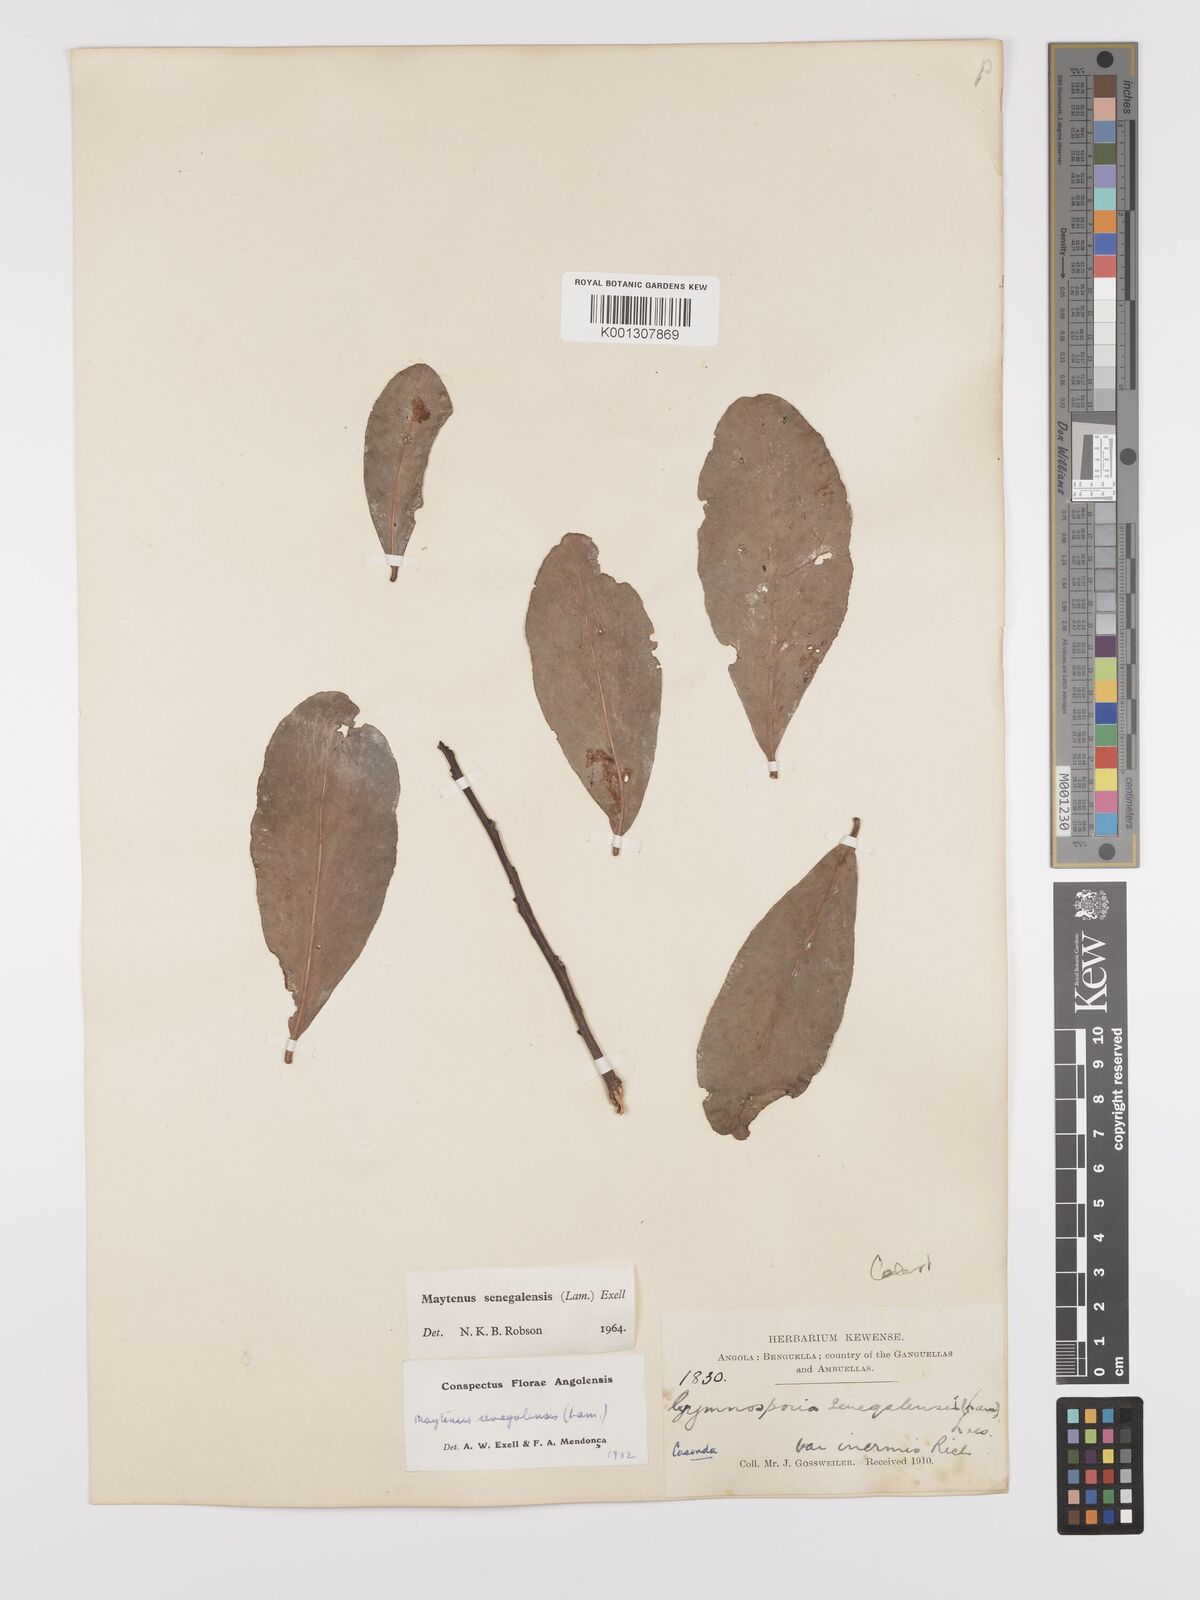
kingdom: Plantae
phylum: Tracheophyta
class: Magnoliopsida
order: Celastrales
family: Celastraceae
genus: Gymnosporia
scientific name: Gymnosporia senegalensis
